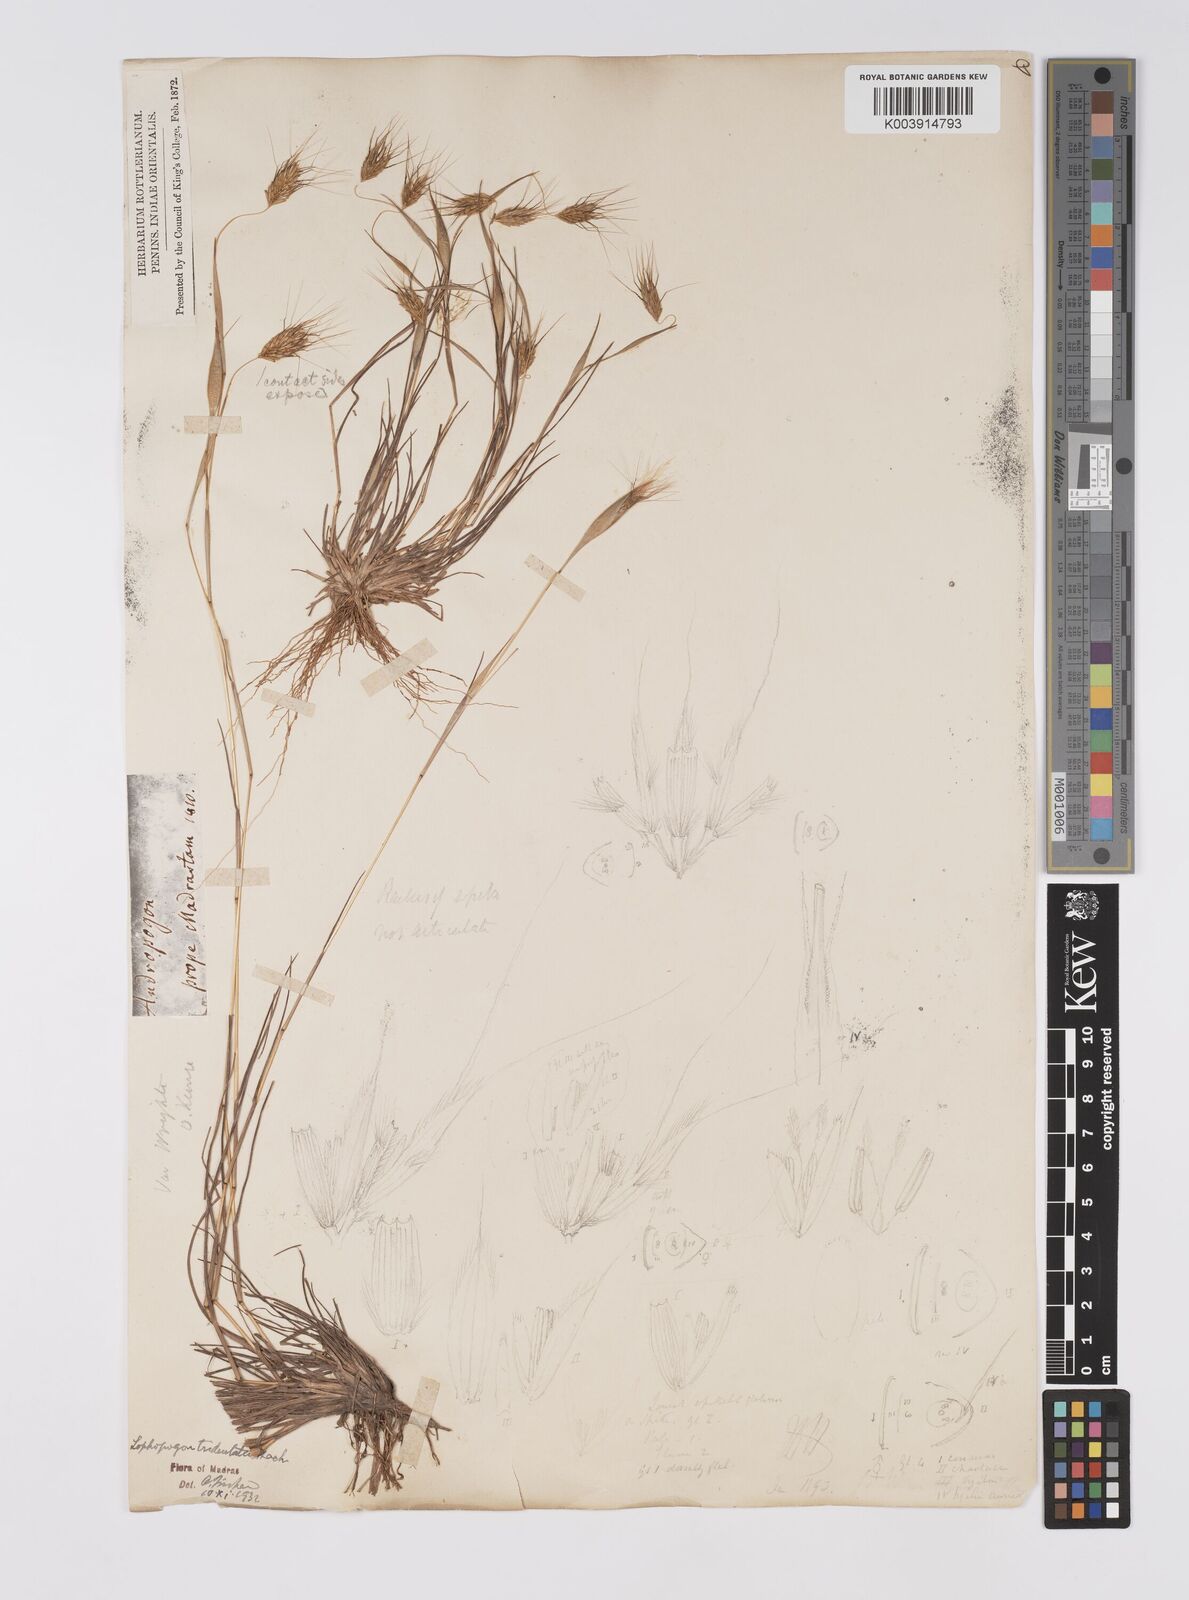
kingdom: Plantae
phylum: Tracheophyta
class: Liliopsida
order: Poales
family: Poaceae
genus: Lophopogon
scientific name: Lophopogon tridentatus
